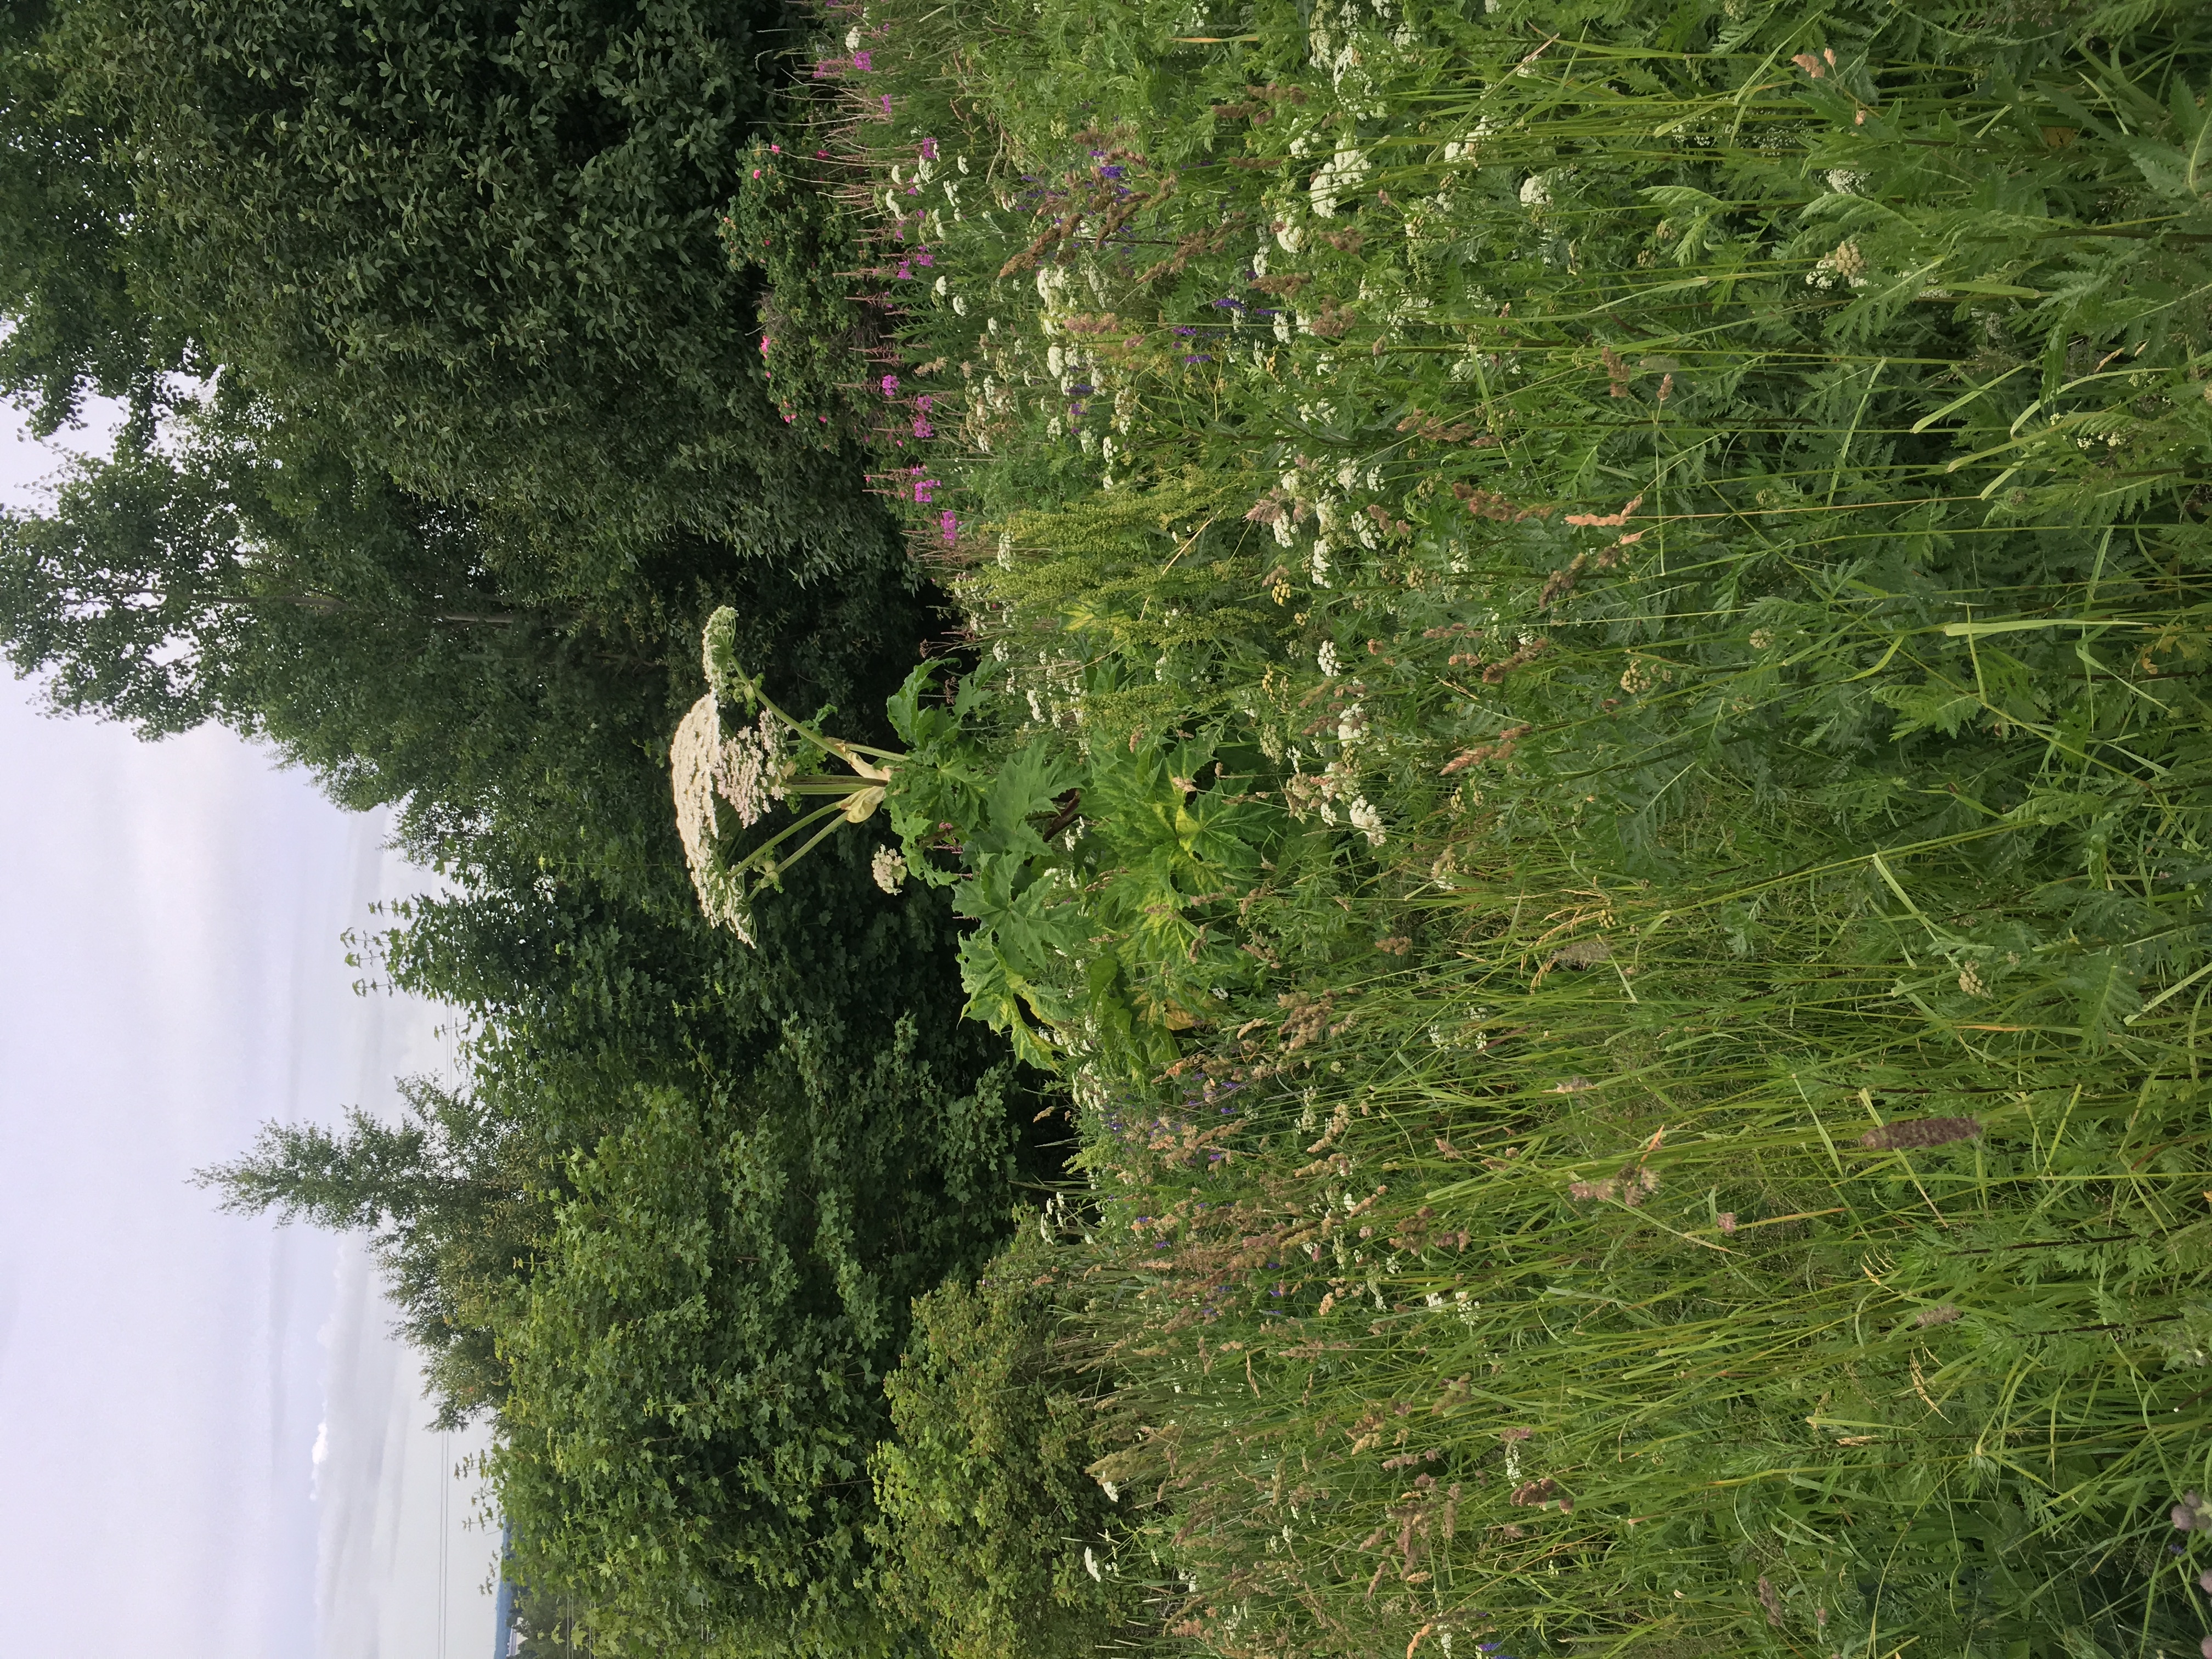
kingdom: Plantae
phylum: Tracheophyta
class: Magnoliopsida
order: Apiales
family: Apiaceae
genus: Heracleum
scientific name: Heracleum
